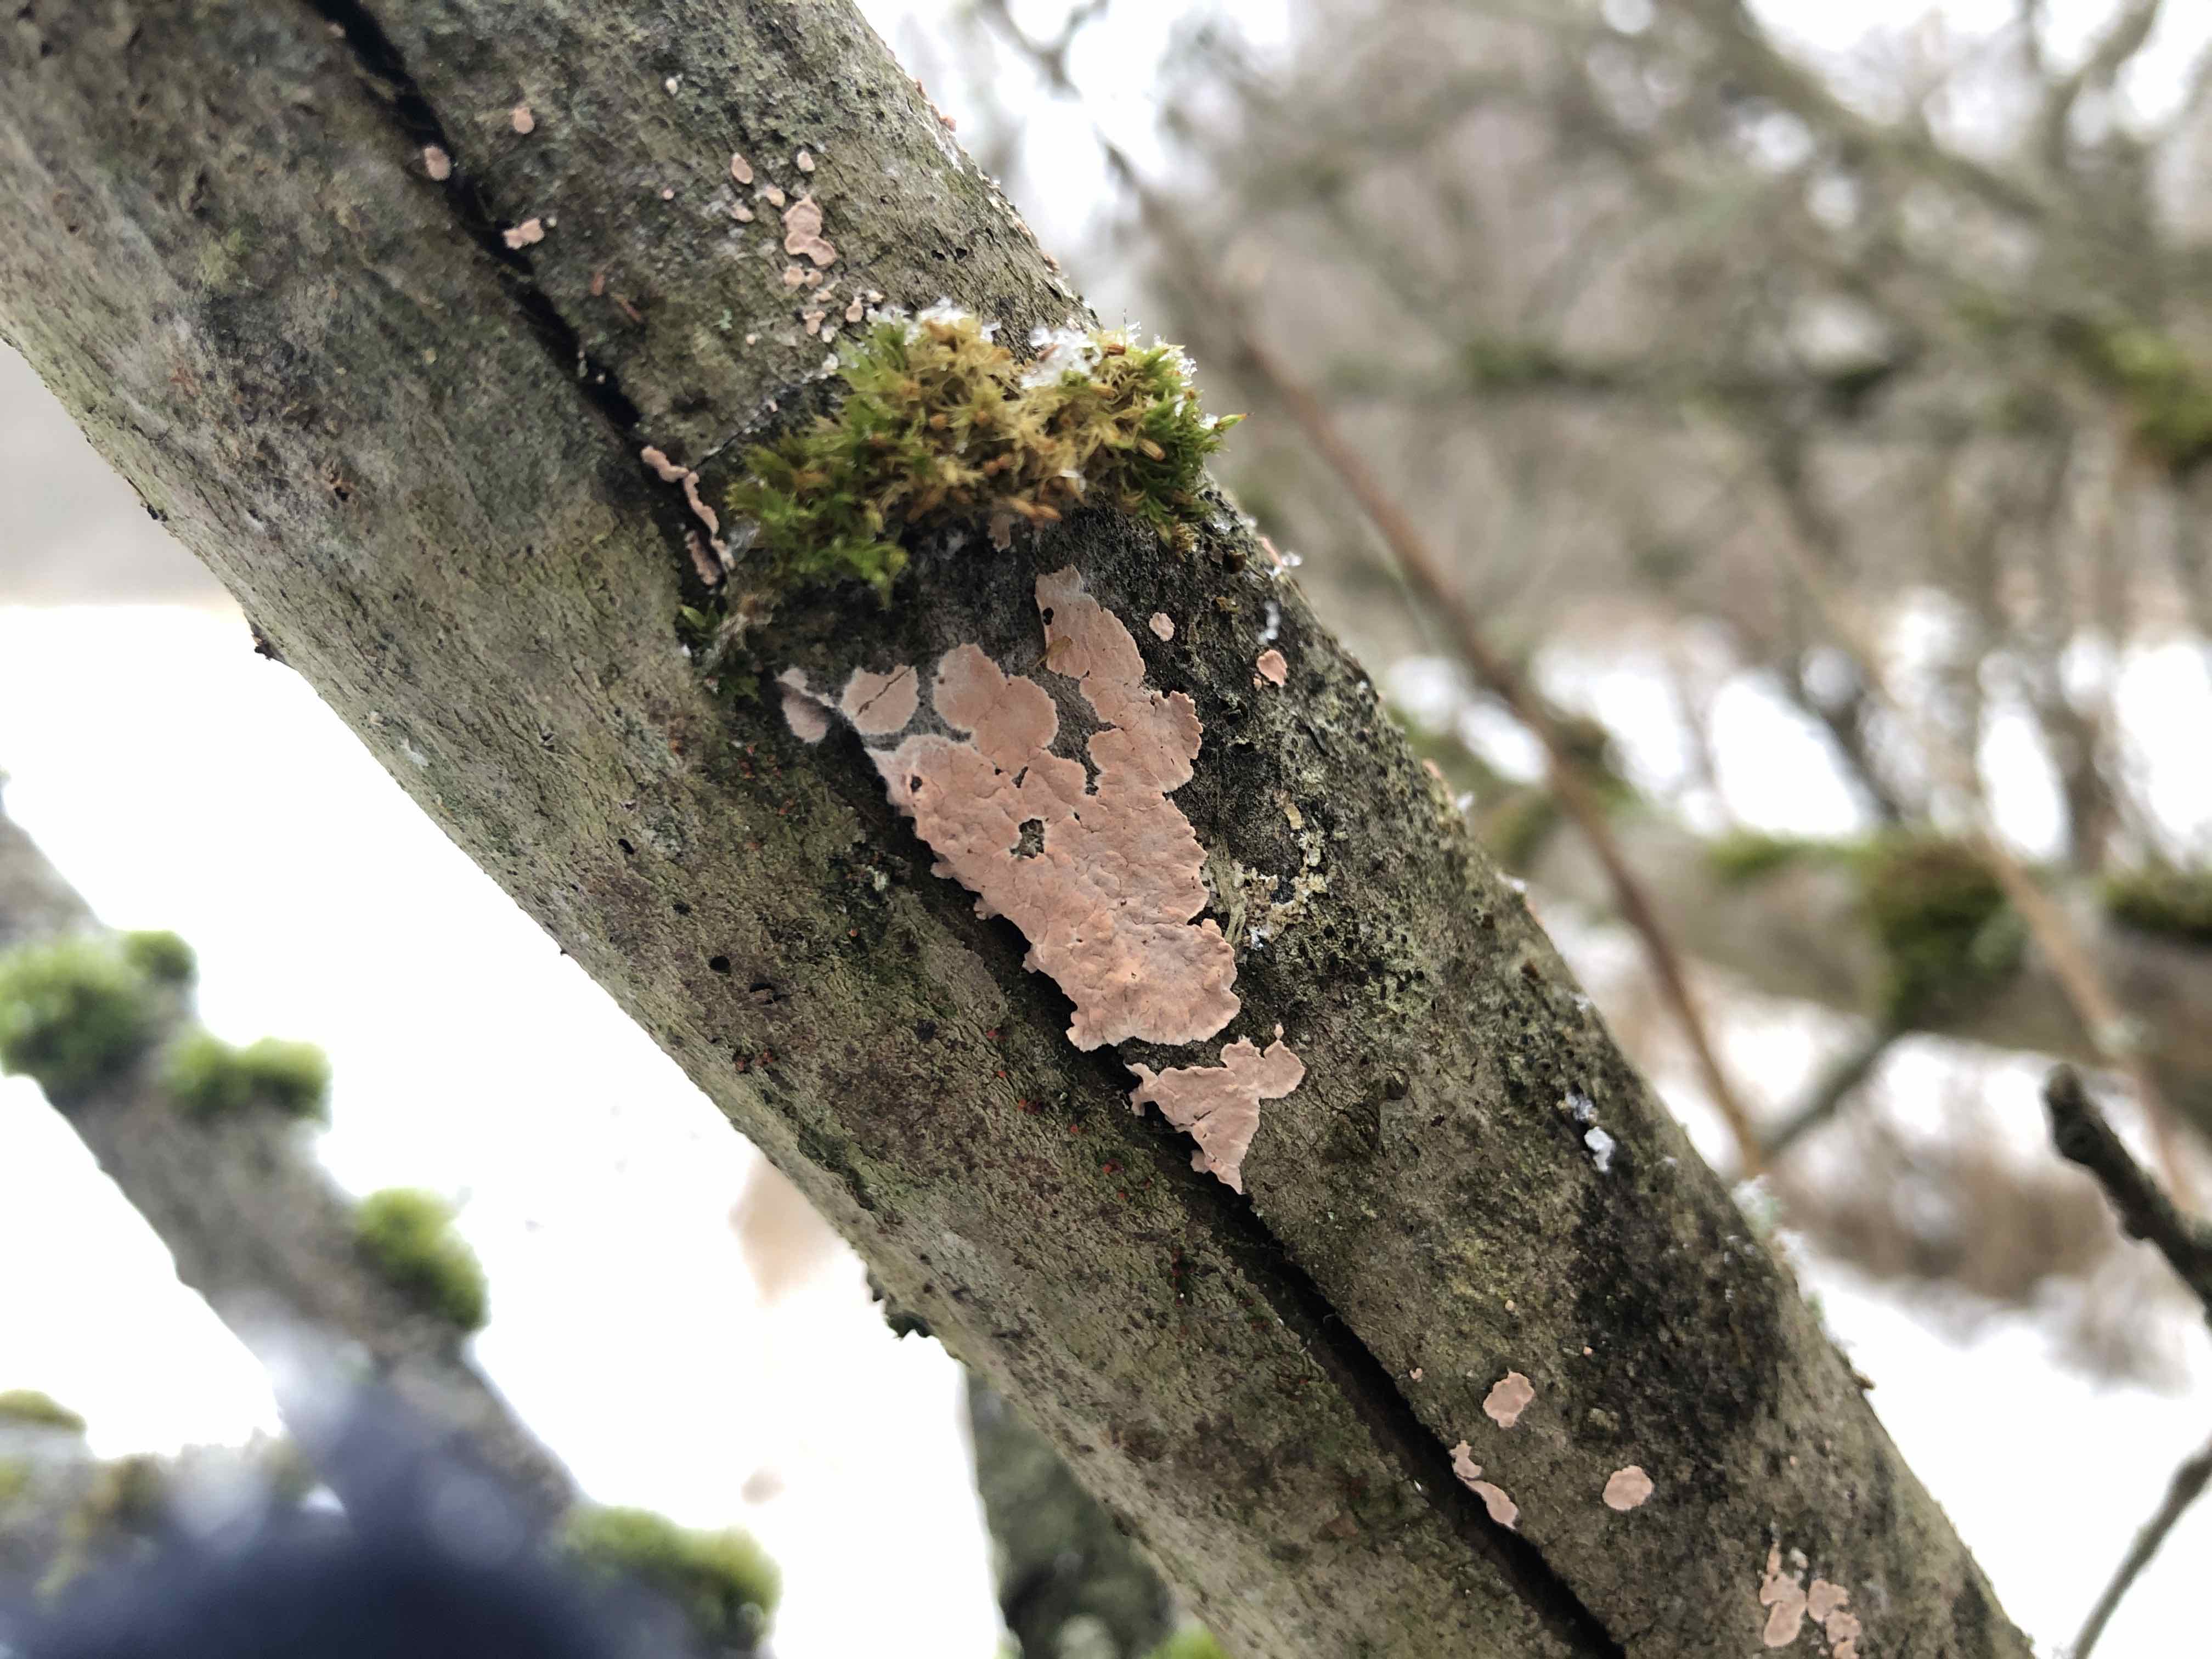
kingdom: Fungi
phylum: Basidiomycota
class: Agaricomycetes
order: Corticiales
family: Corticiaceae
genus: Corticium
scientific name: Corticium roseum
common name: rosa barkskind
